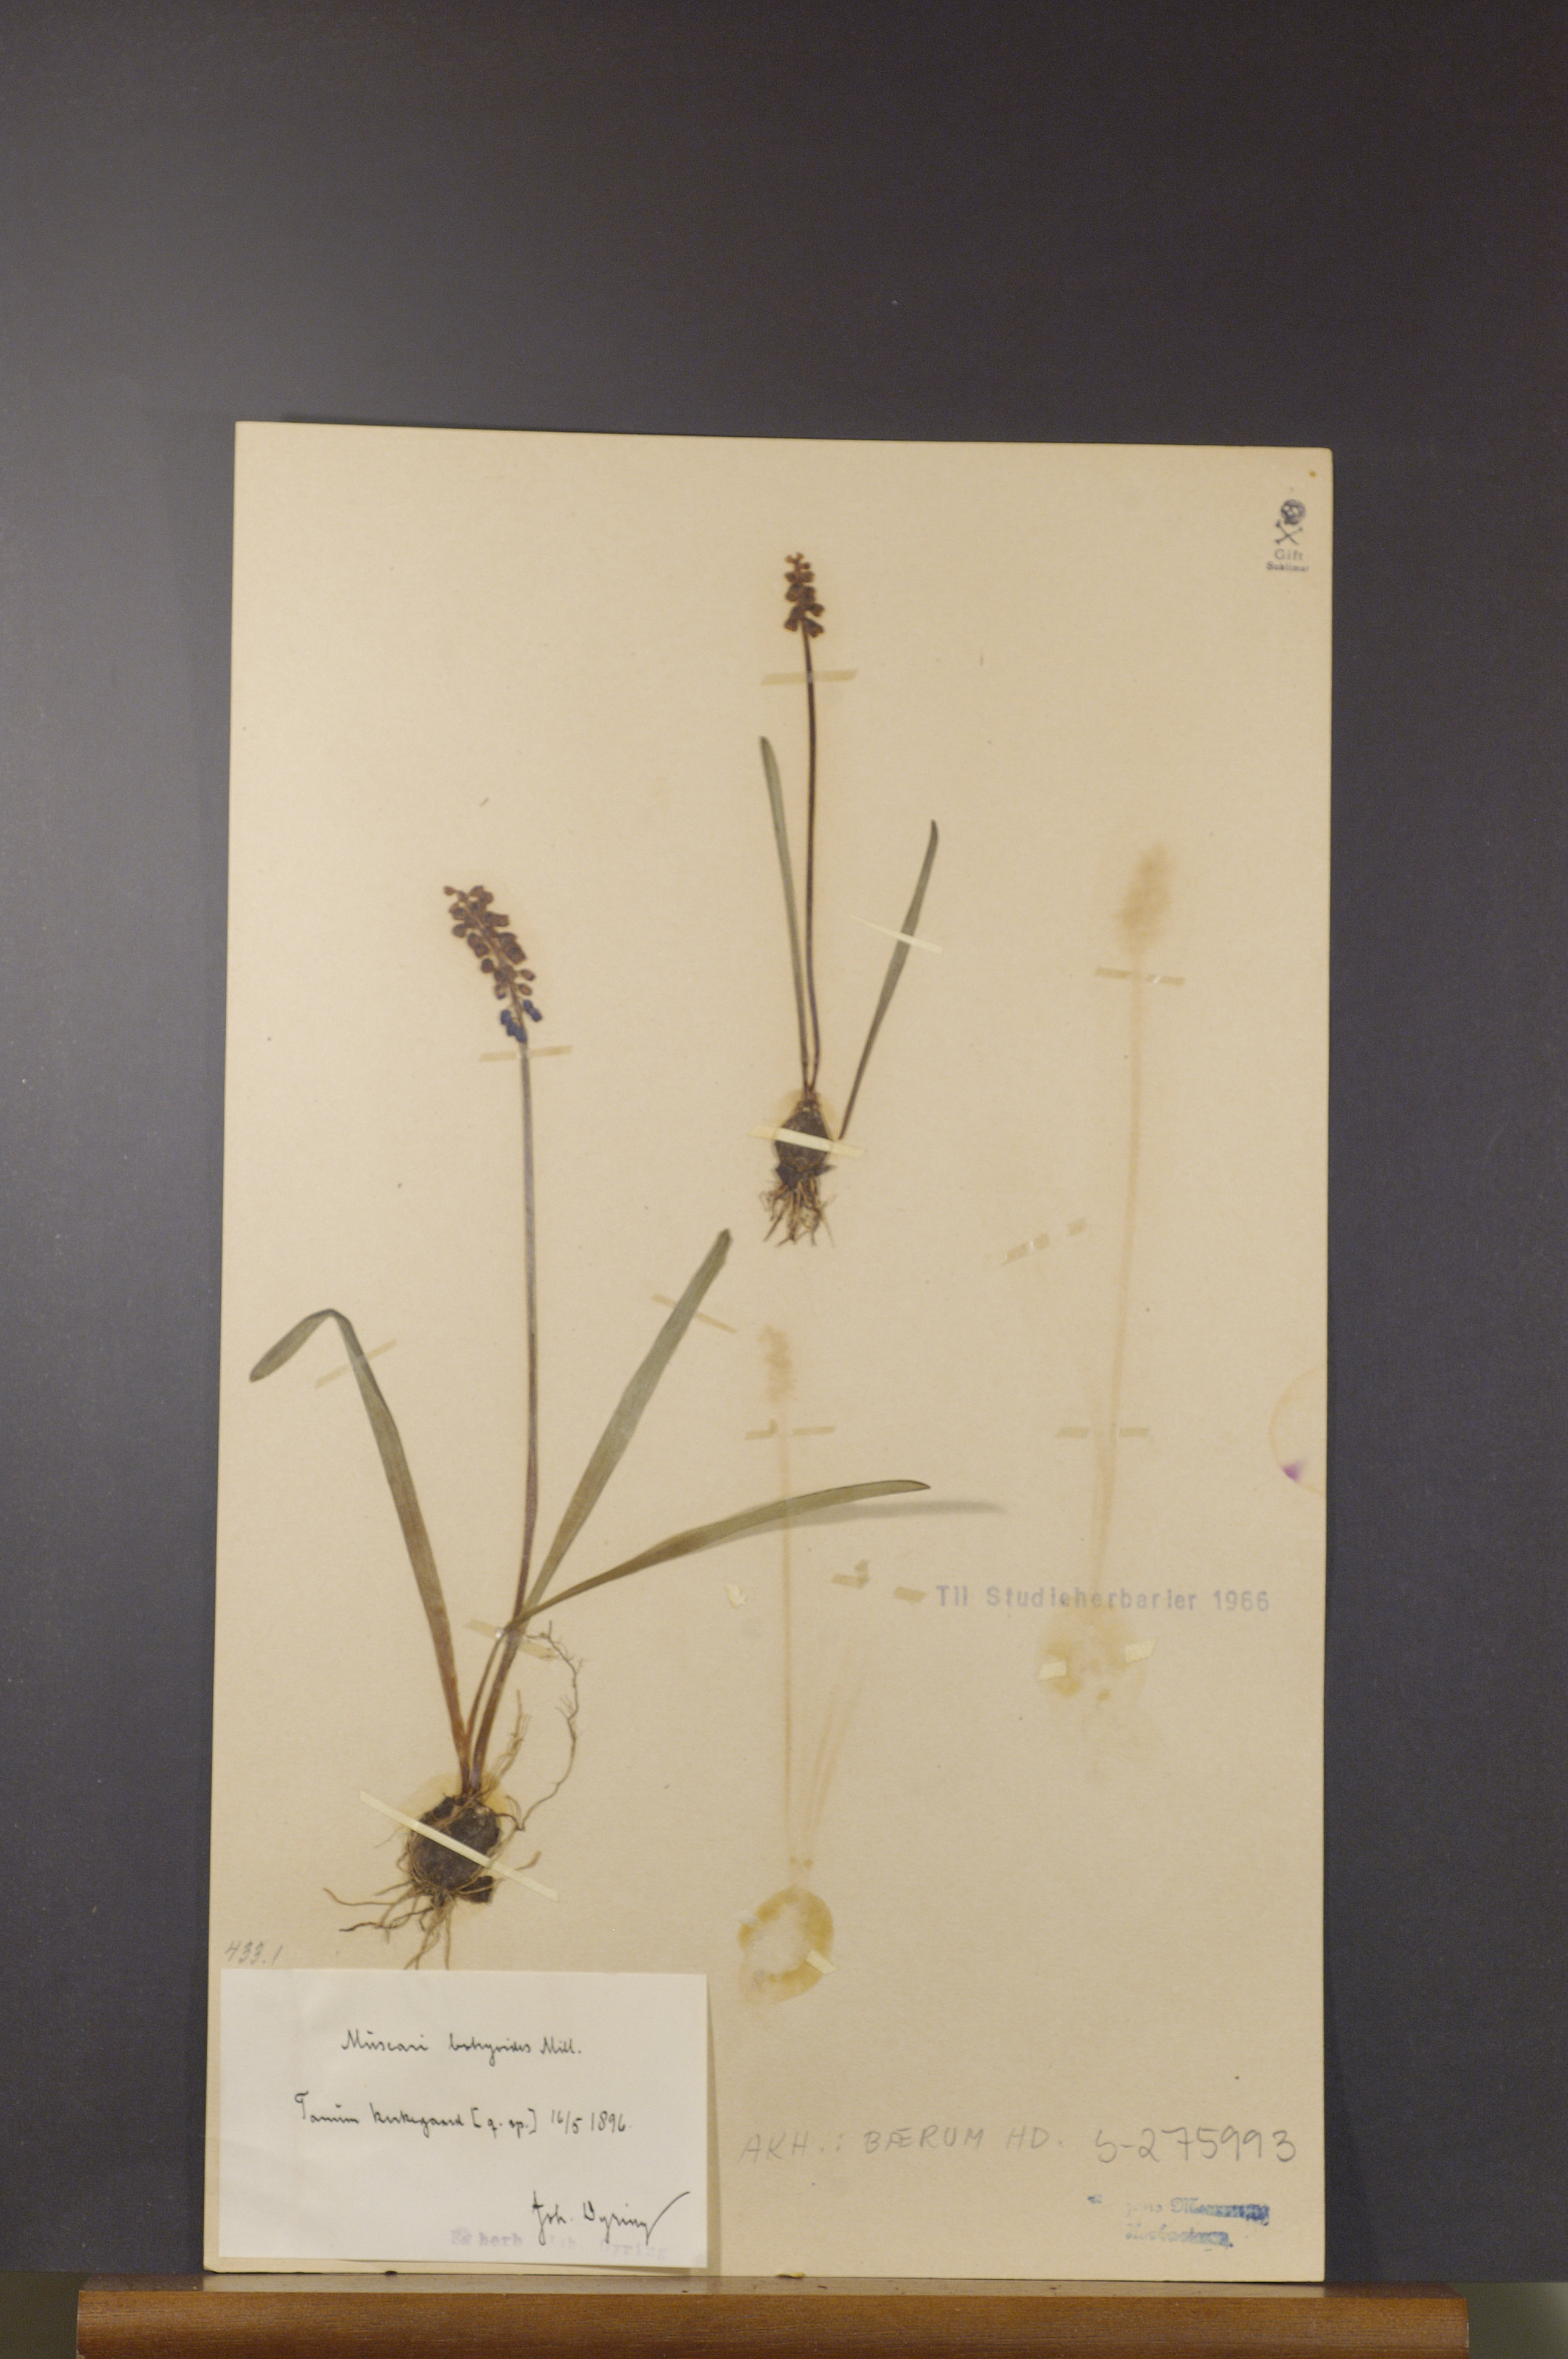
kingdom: Plantae
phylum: Tracheophyta
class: Liliopsida
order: Asparagales
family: Asparagaceae
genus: Muscari
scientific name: Muscari botryoides
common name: Compact grape-hyacinth
